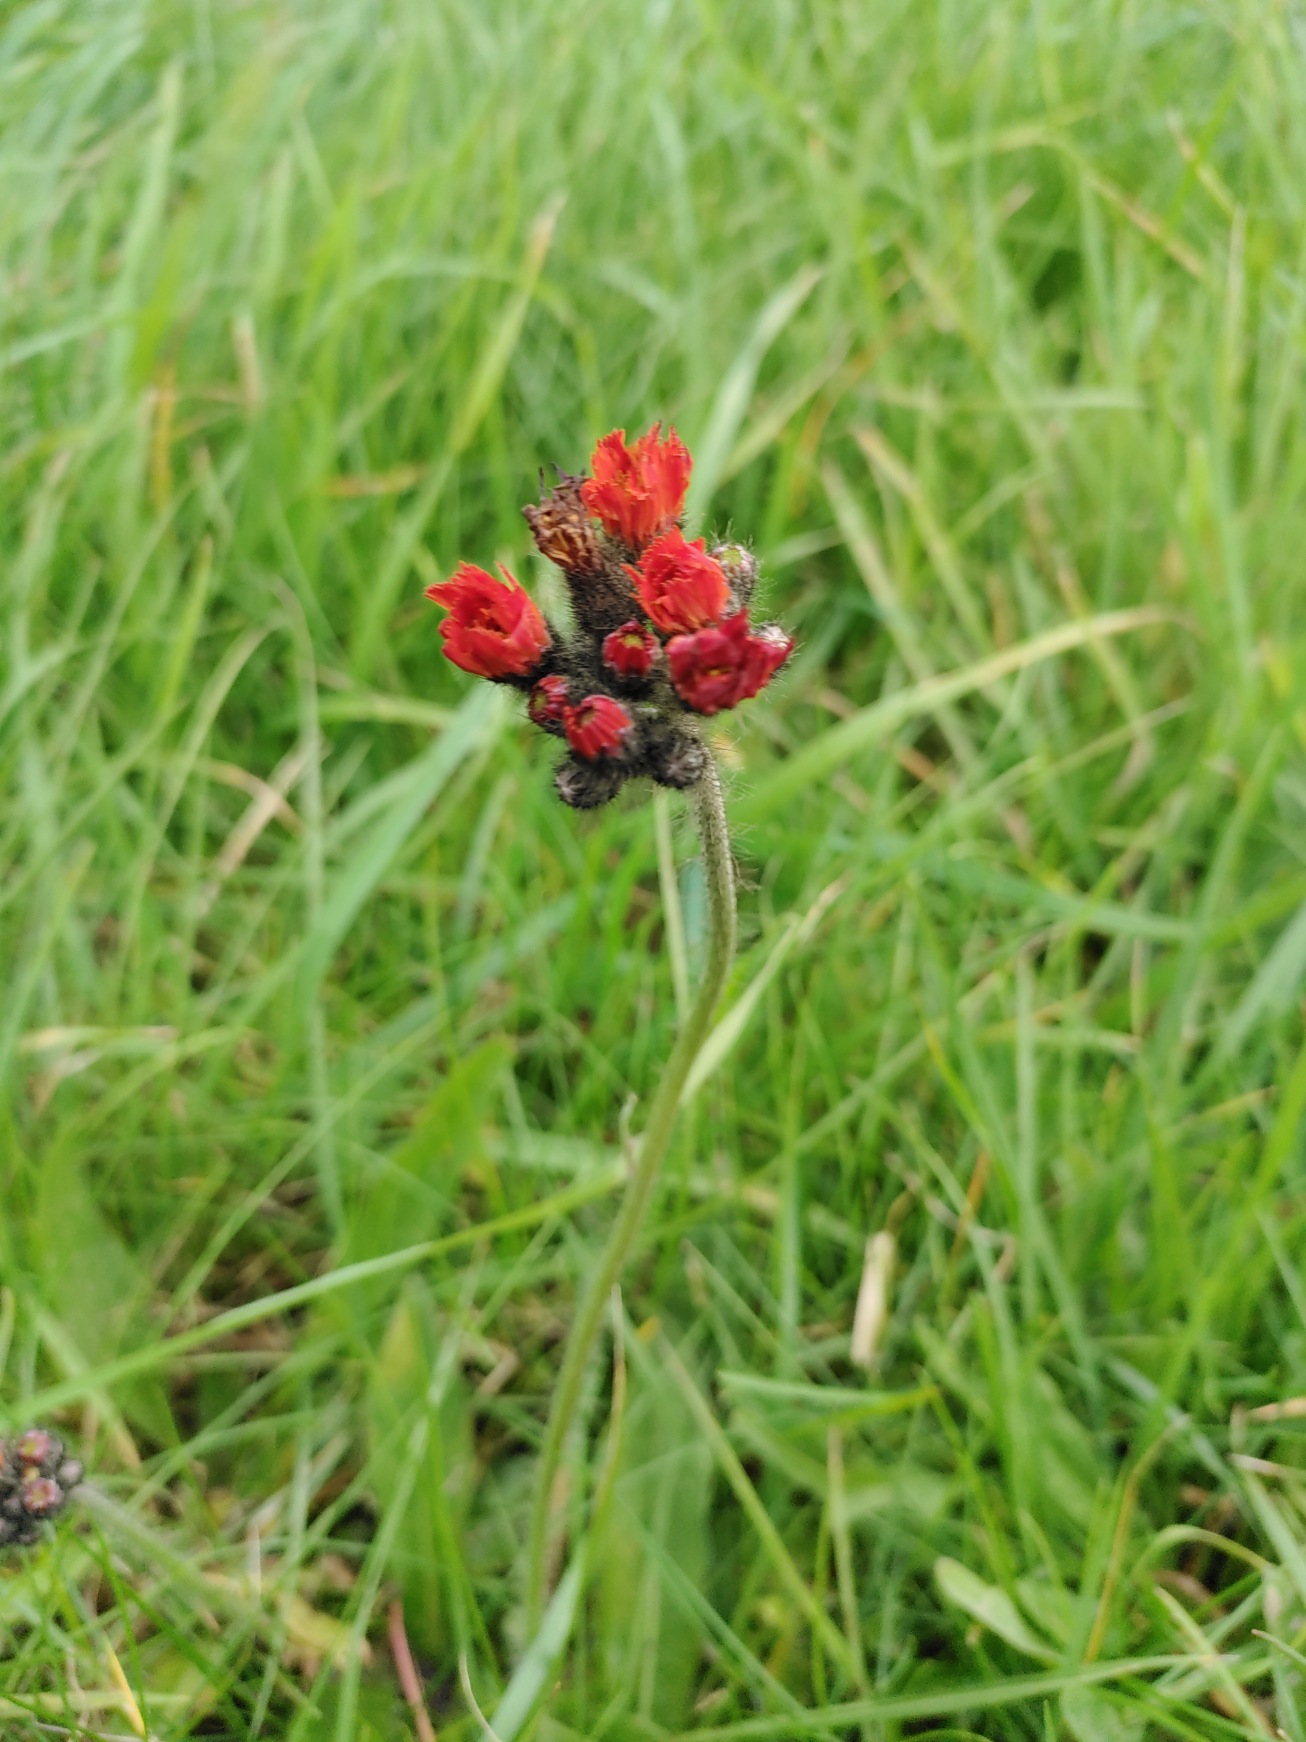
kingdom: Plantae
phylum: Tracheophyta
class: Magnoliopsida
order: Asterales
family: Asteraceae
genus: Pilosella
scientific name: Pilosella aurantiaca
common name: Pomerans-høgeurt
